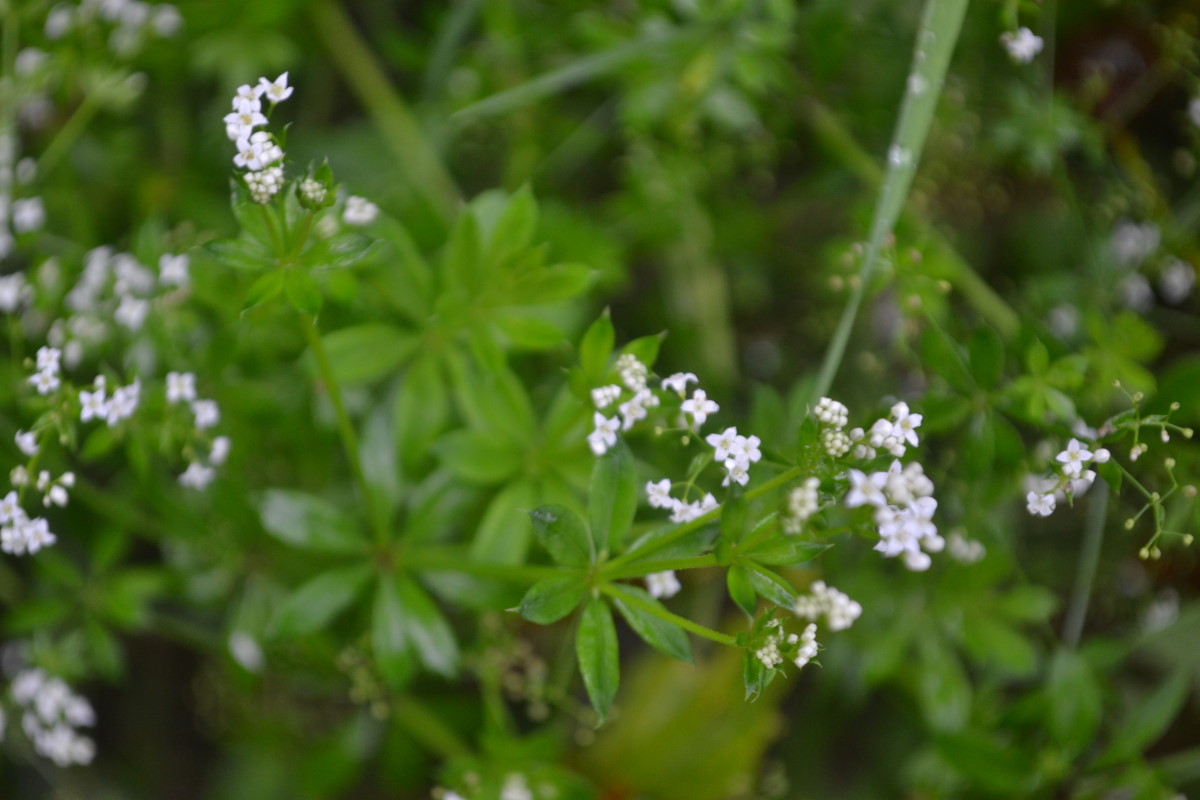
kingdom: Plantae
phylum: Tracheophyta
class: Magnoliopsida
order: Gentianales
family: Rubiaceae
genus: Galium
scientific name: Galium rivale
